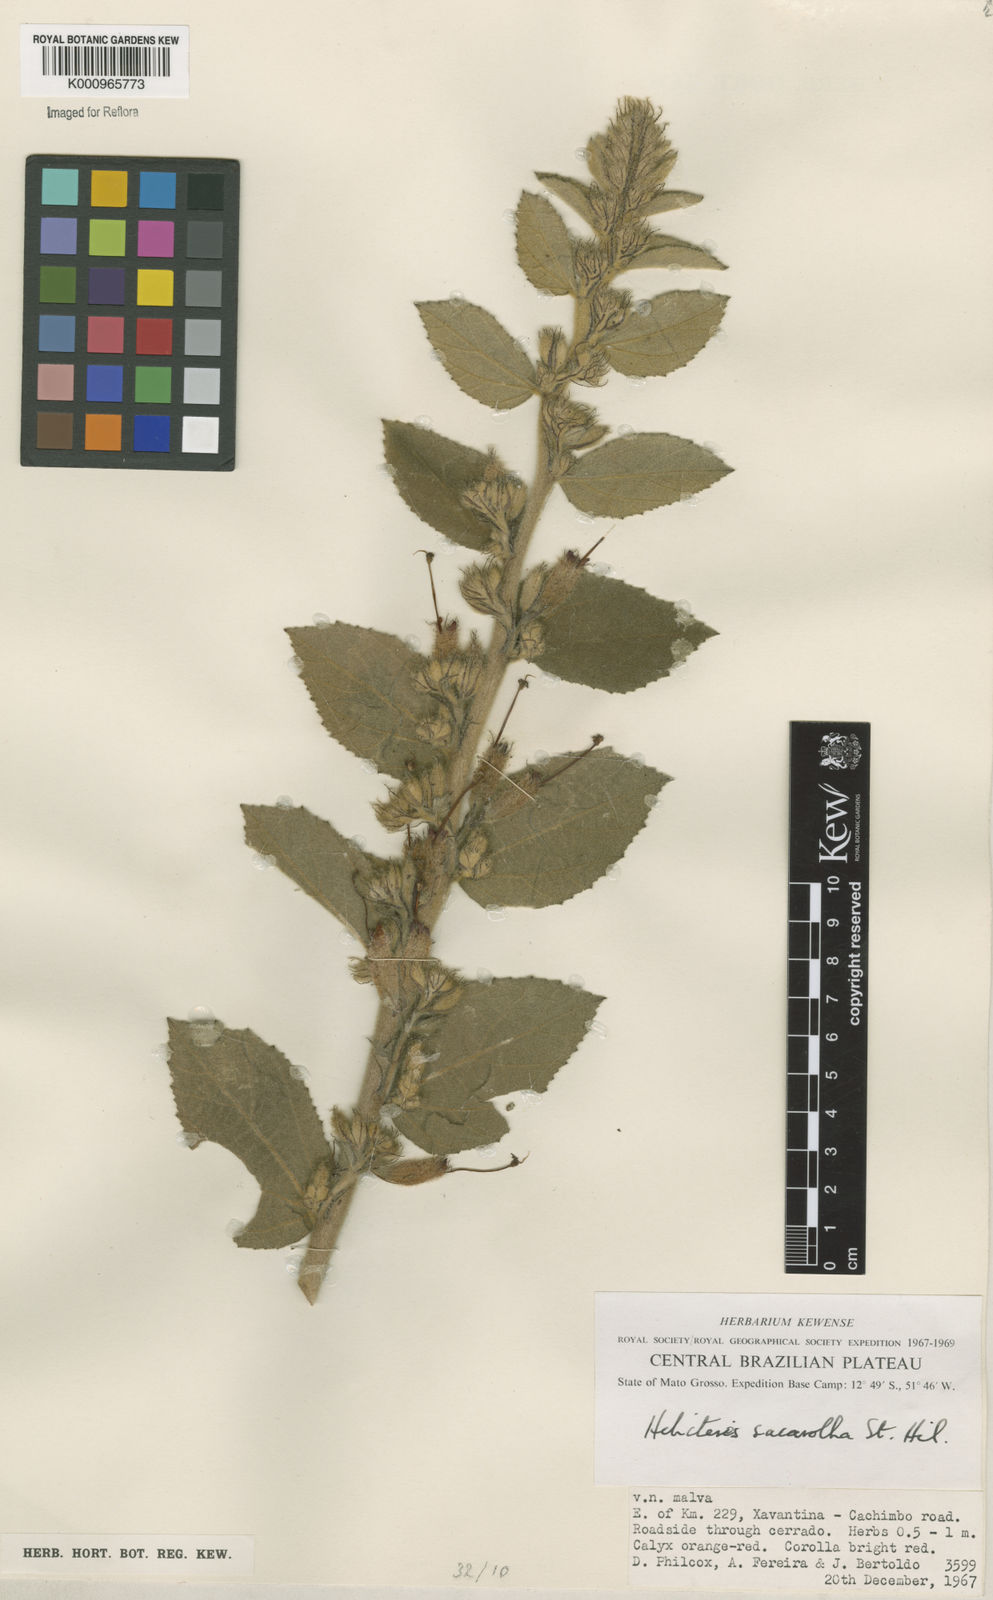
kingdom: Plantae
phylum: Tracheophyta
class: Magnoliopsida
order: Malvales
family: Malvaceae
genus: Helicteres
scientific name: Helicteres
